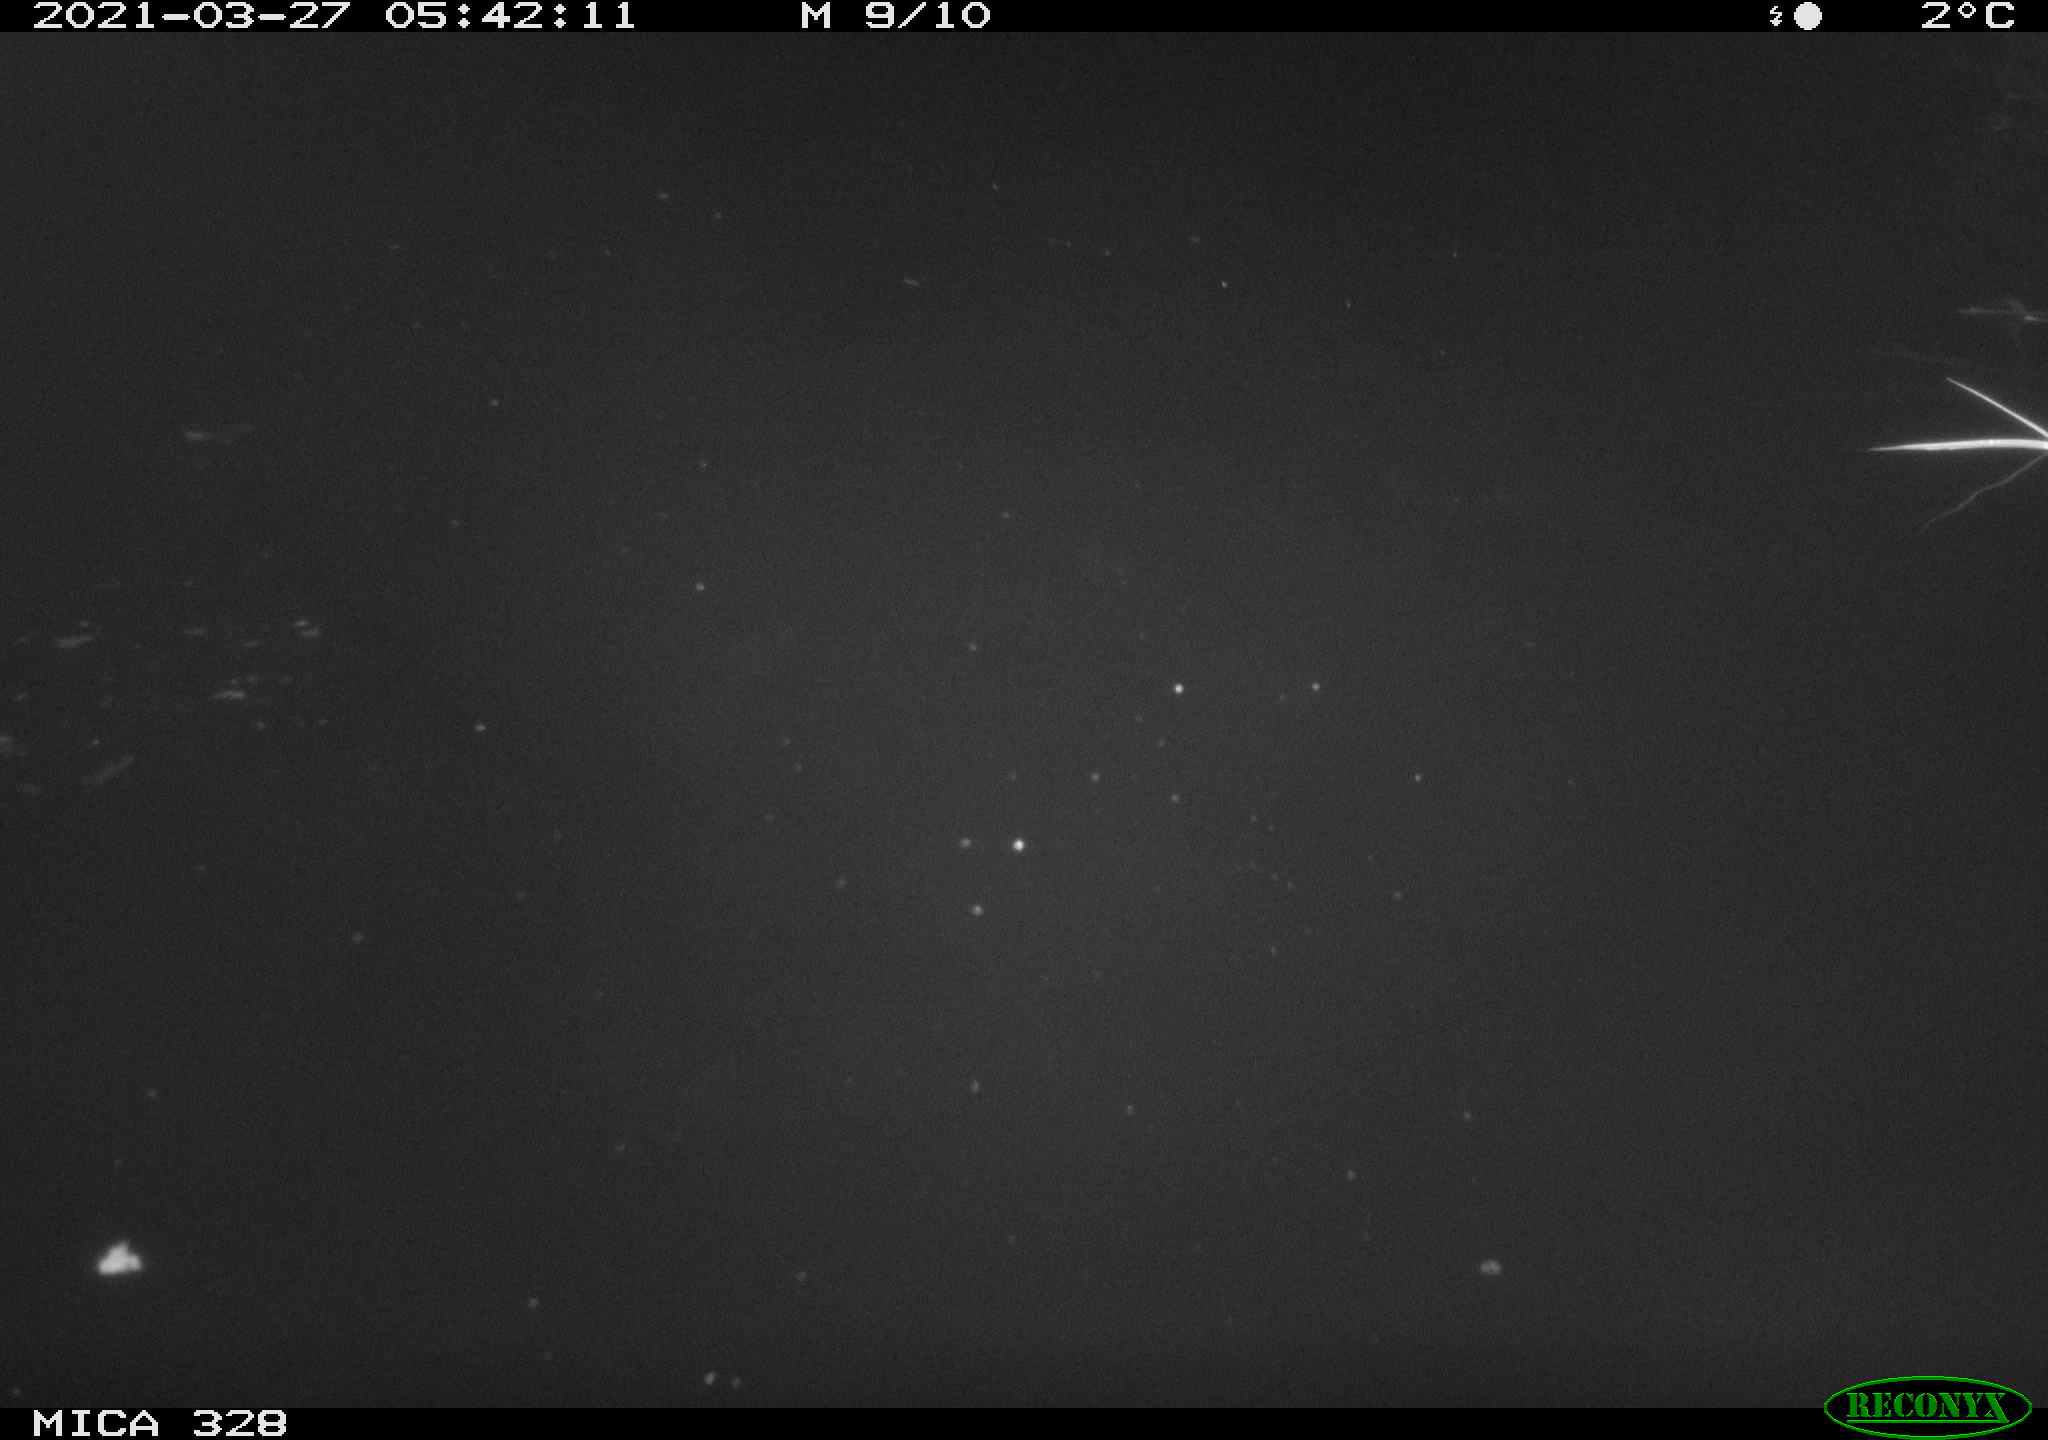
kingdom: Animalia
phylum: Chordata
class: Aves
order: Anseriformes
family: Anatidae
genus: Anas
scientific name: Anas platyrhynchos
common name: Mallard
